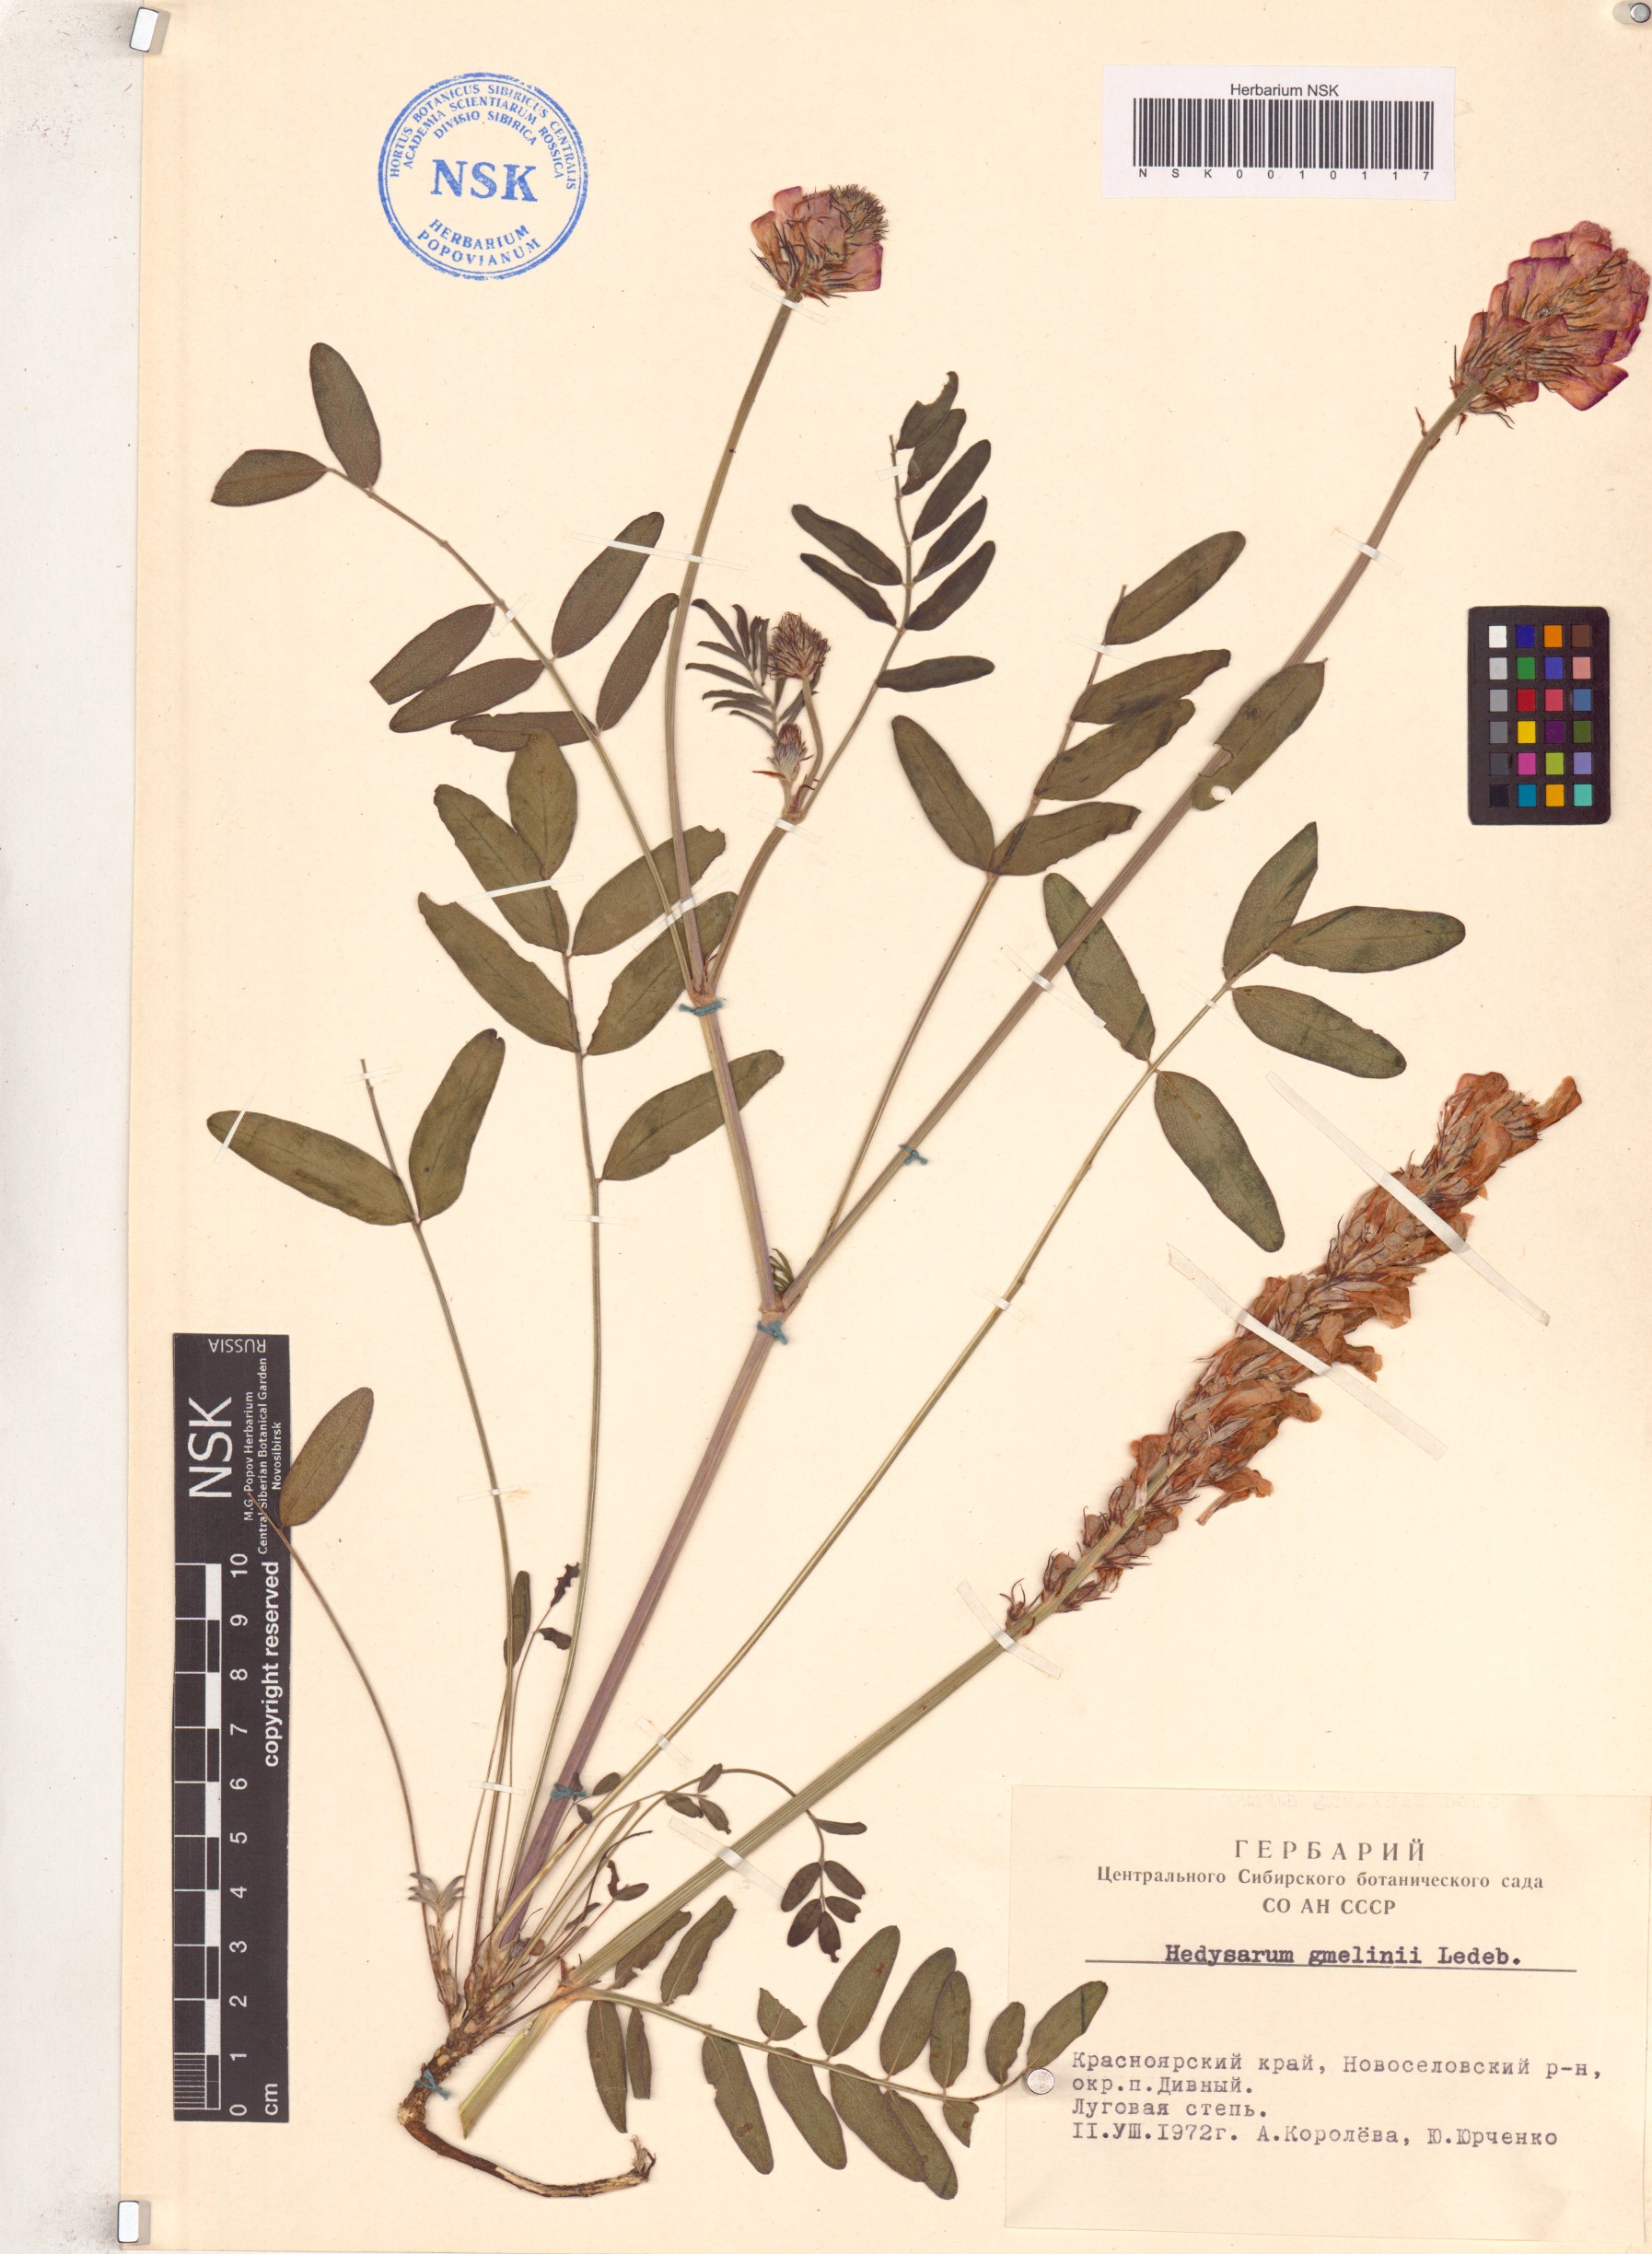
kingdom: Plantae
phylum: Tracheophyta
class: Magnoliopsida
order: Fabales
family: Fabaceae
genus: Hedysarum
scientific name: Hedysarum gmelinii
